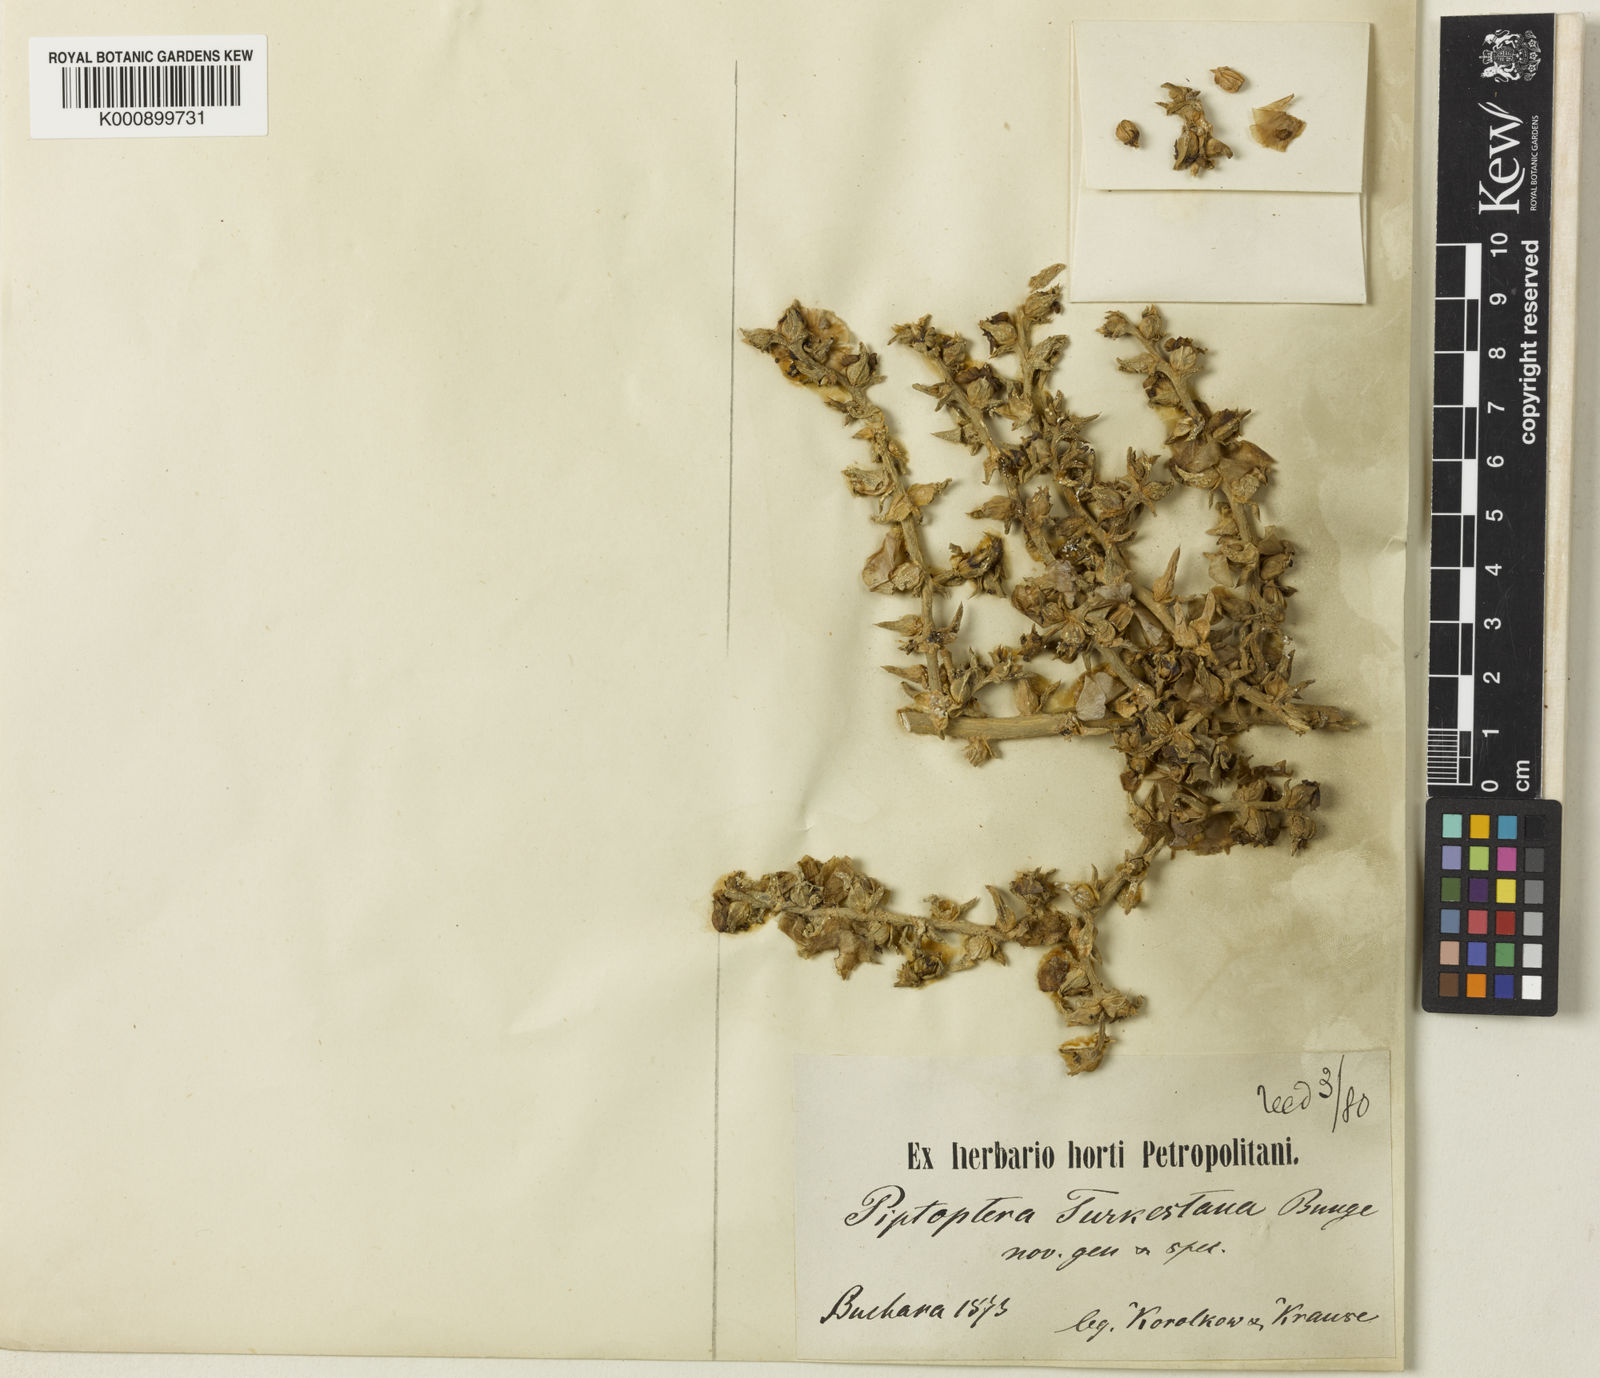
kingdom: Plantae
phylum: Tracheophyta
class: Magnoliopsida
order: Caryophyllales
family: Amaranthaceae
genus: Piptoptera
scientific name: Piptoptera turkestana
